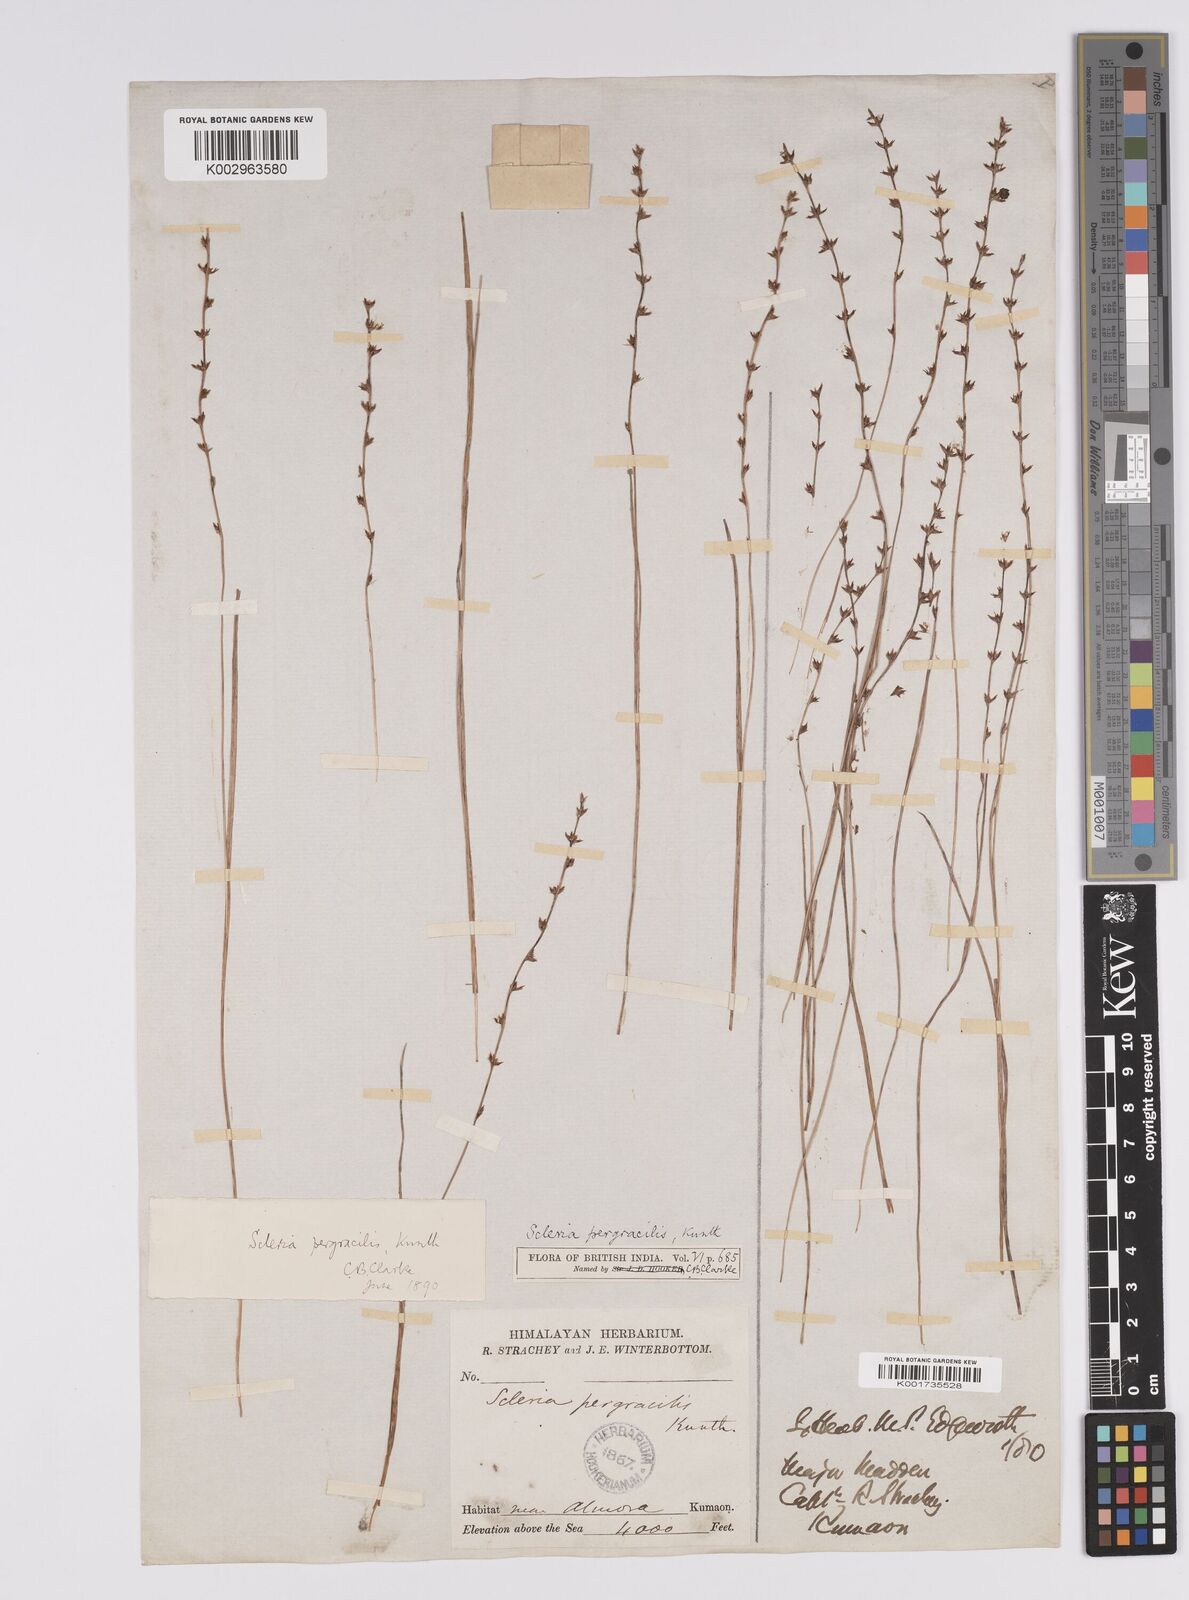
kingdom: Plantae
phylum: Tracheophyta
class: Liliopsida
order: Poales
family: Cyperaceae
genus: Scleria
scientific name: Scleria pergracilis
